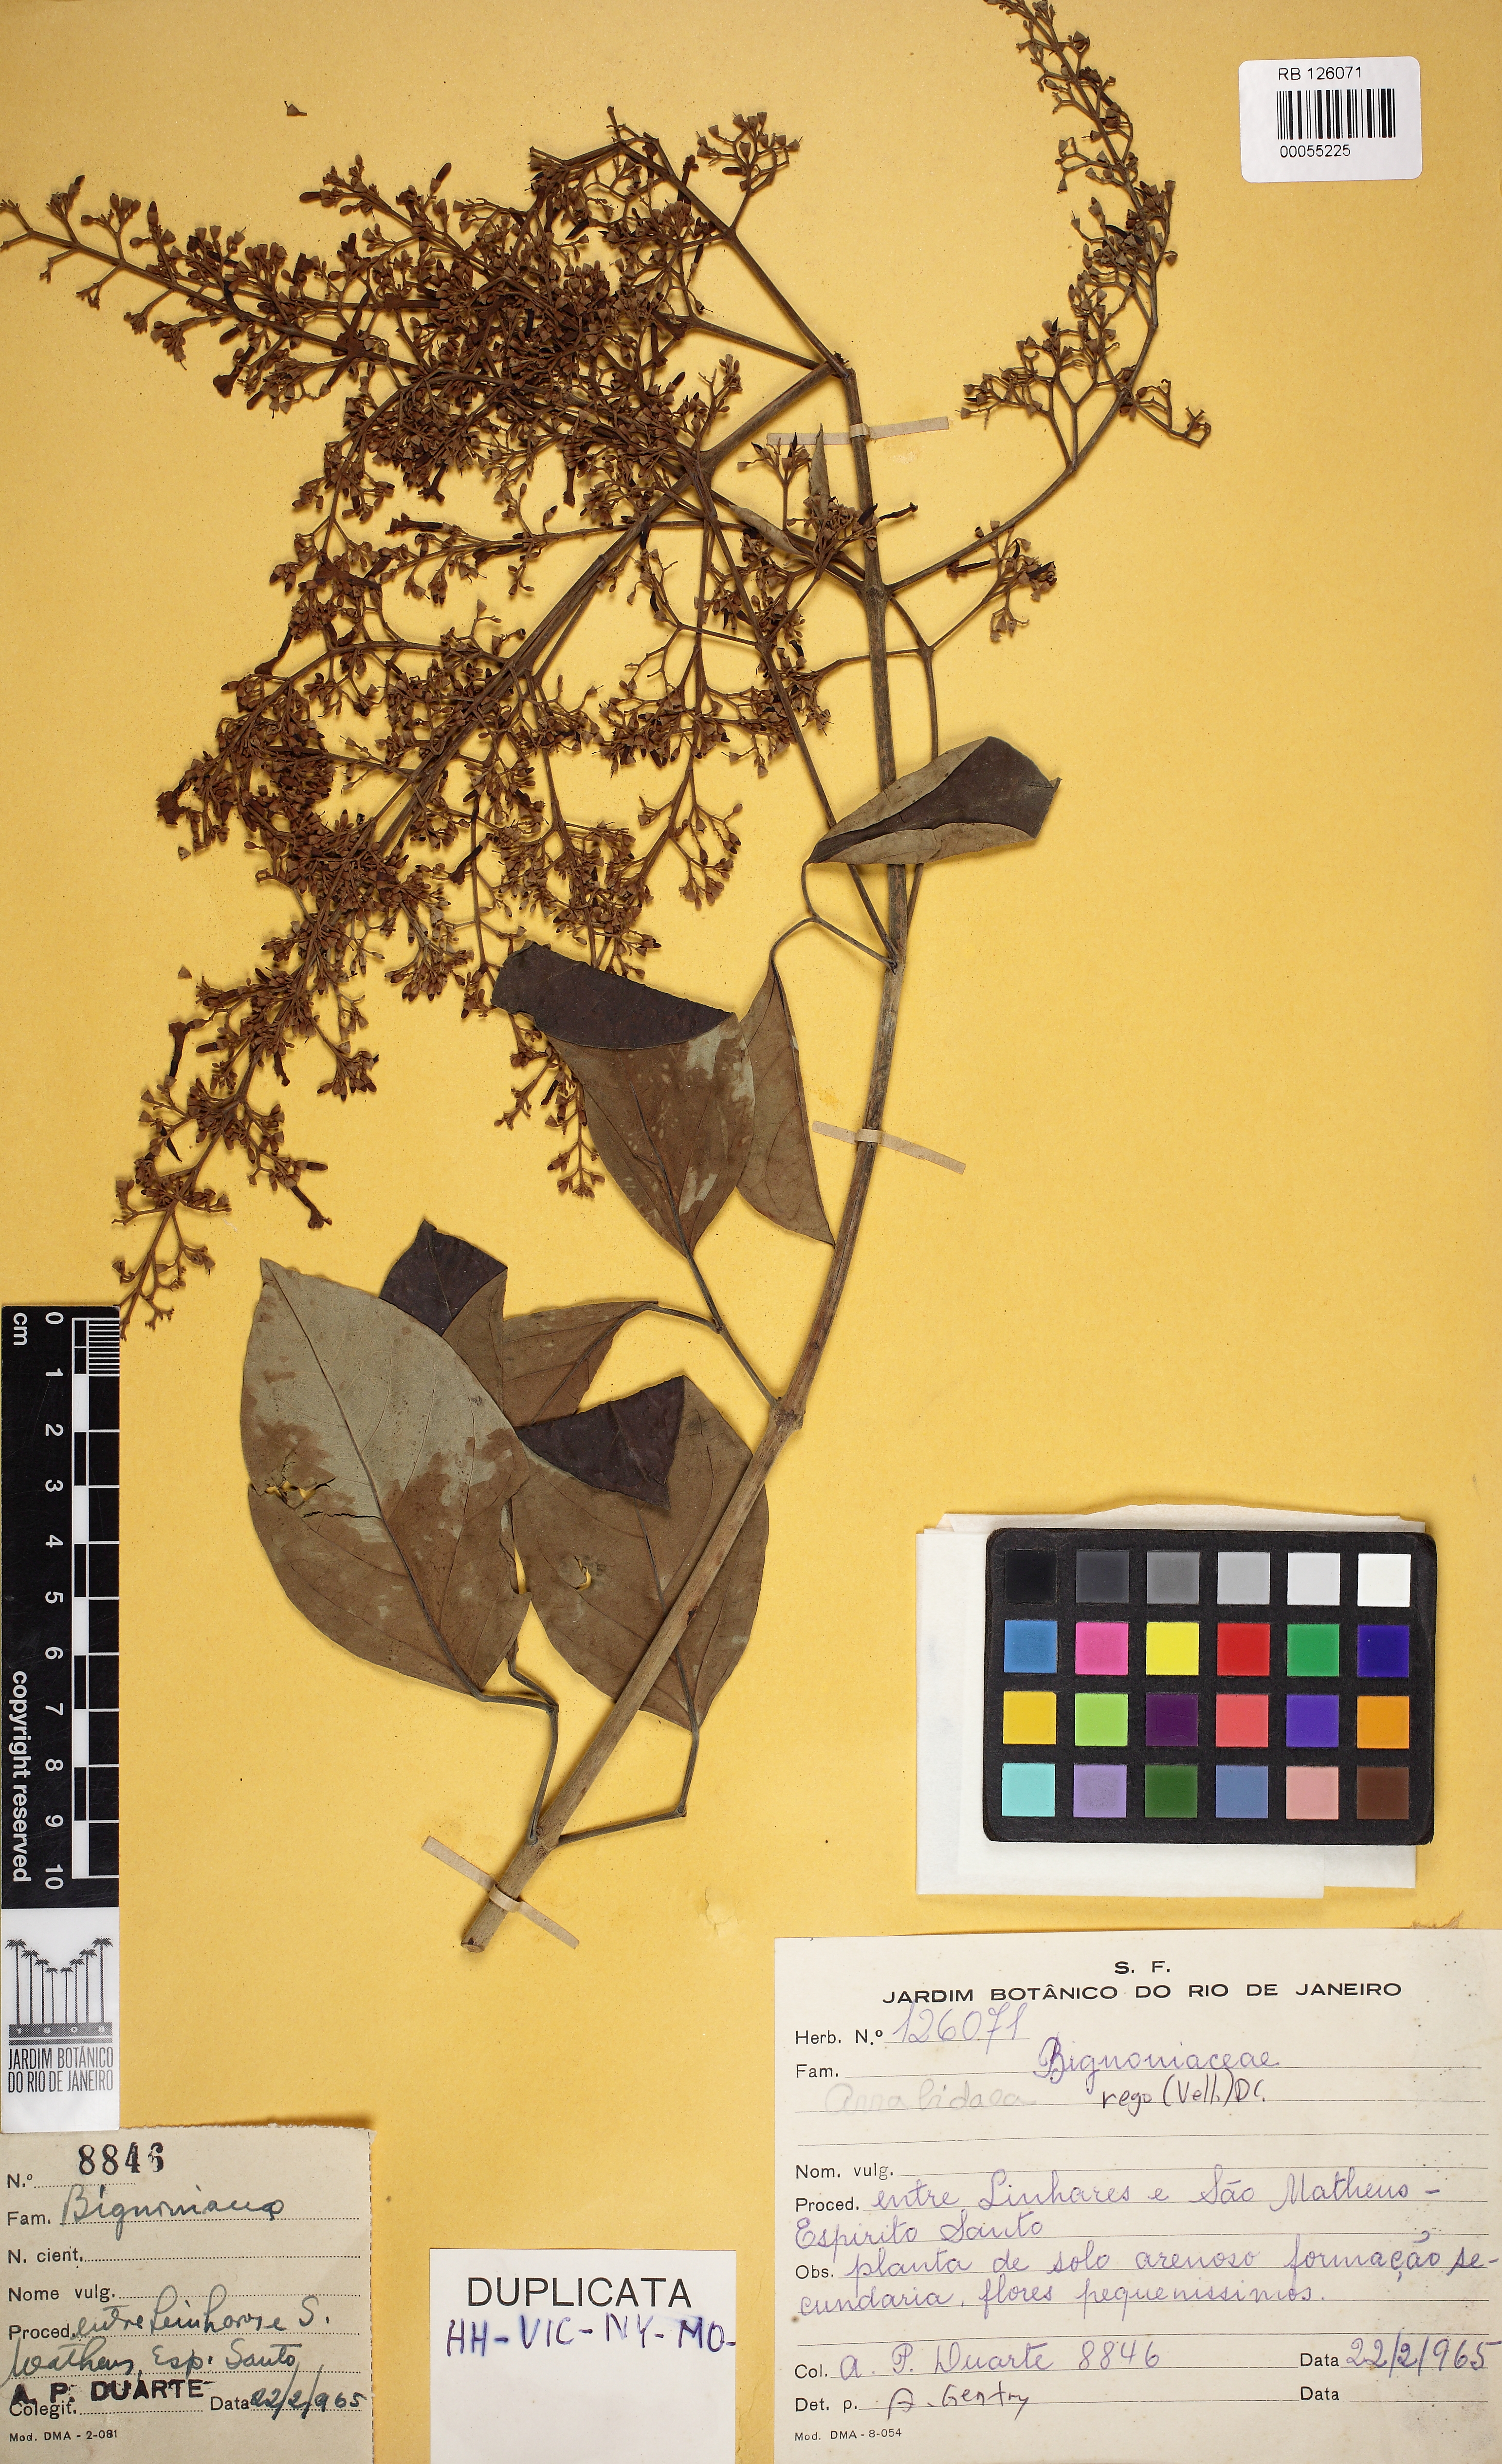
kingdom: Plantae
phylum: Tracheophyta
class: Magnoliopsida
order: Lamiales
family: Bignoniaceae
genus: Fridericia
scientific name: Fridericia rego
